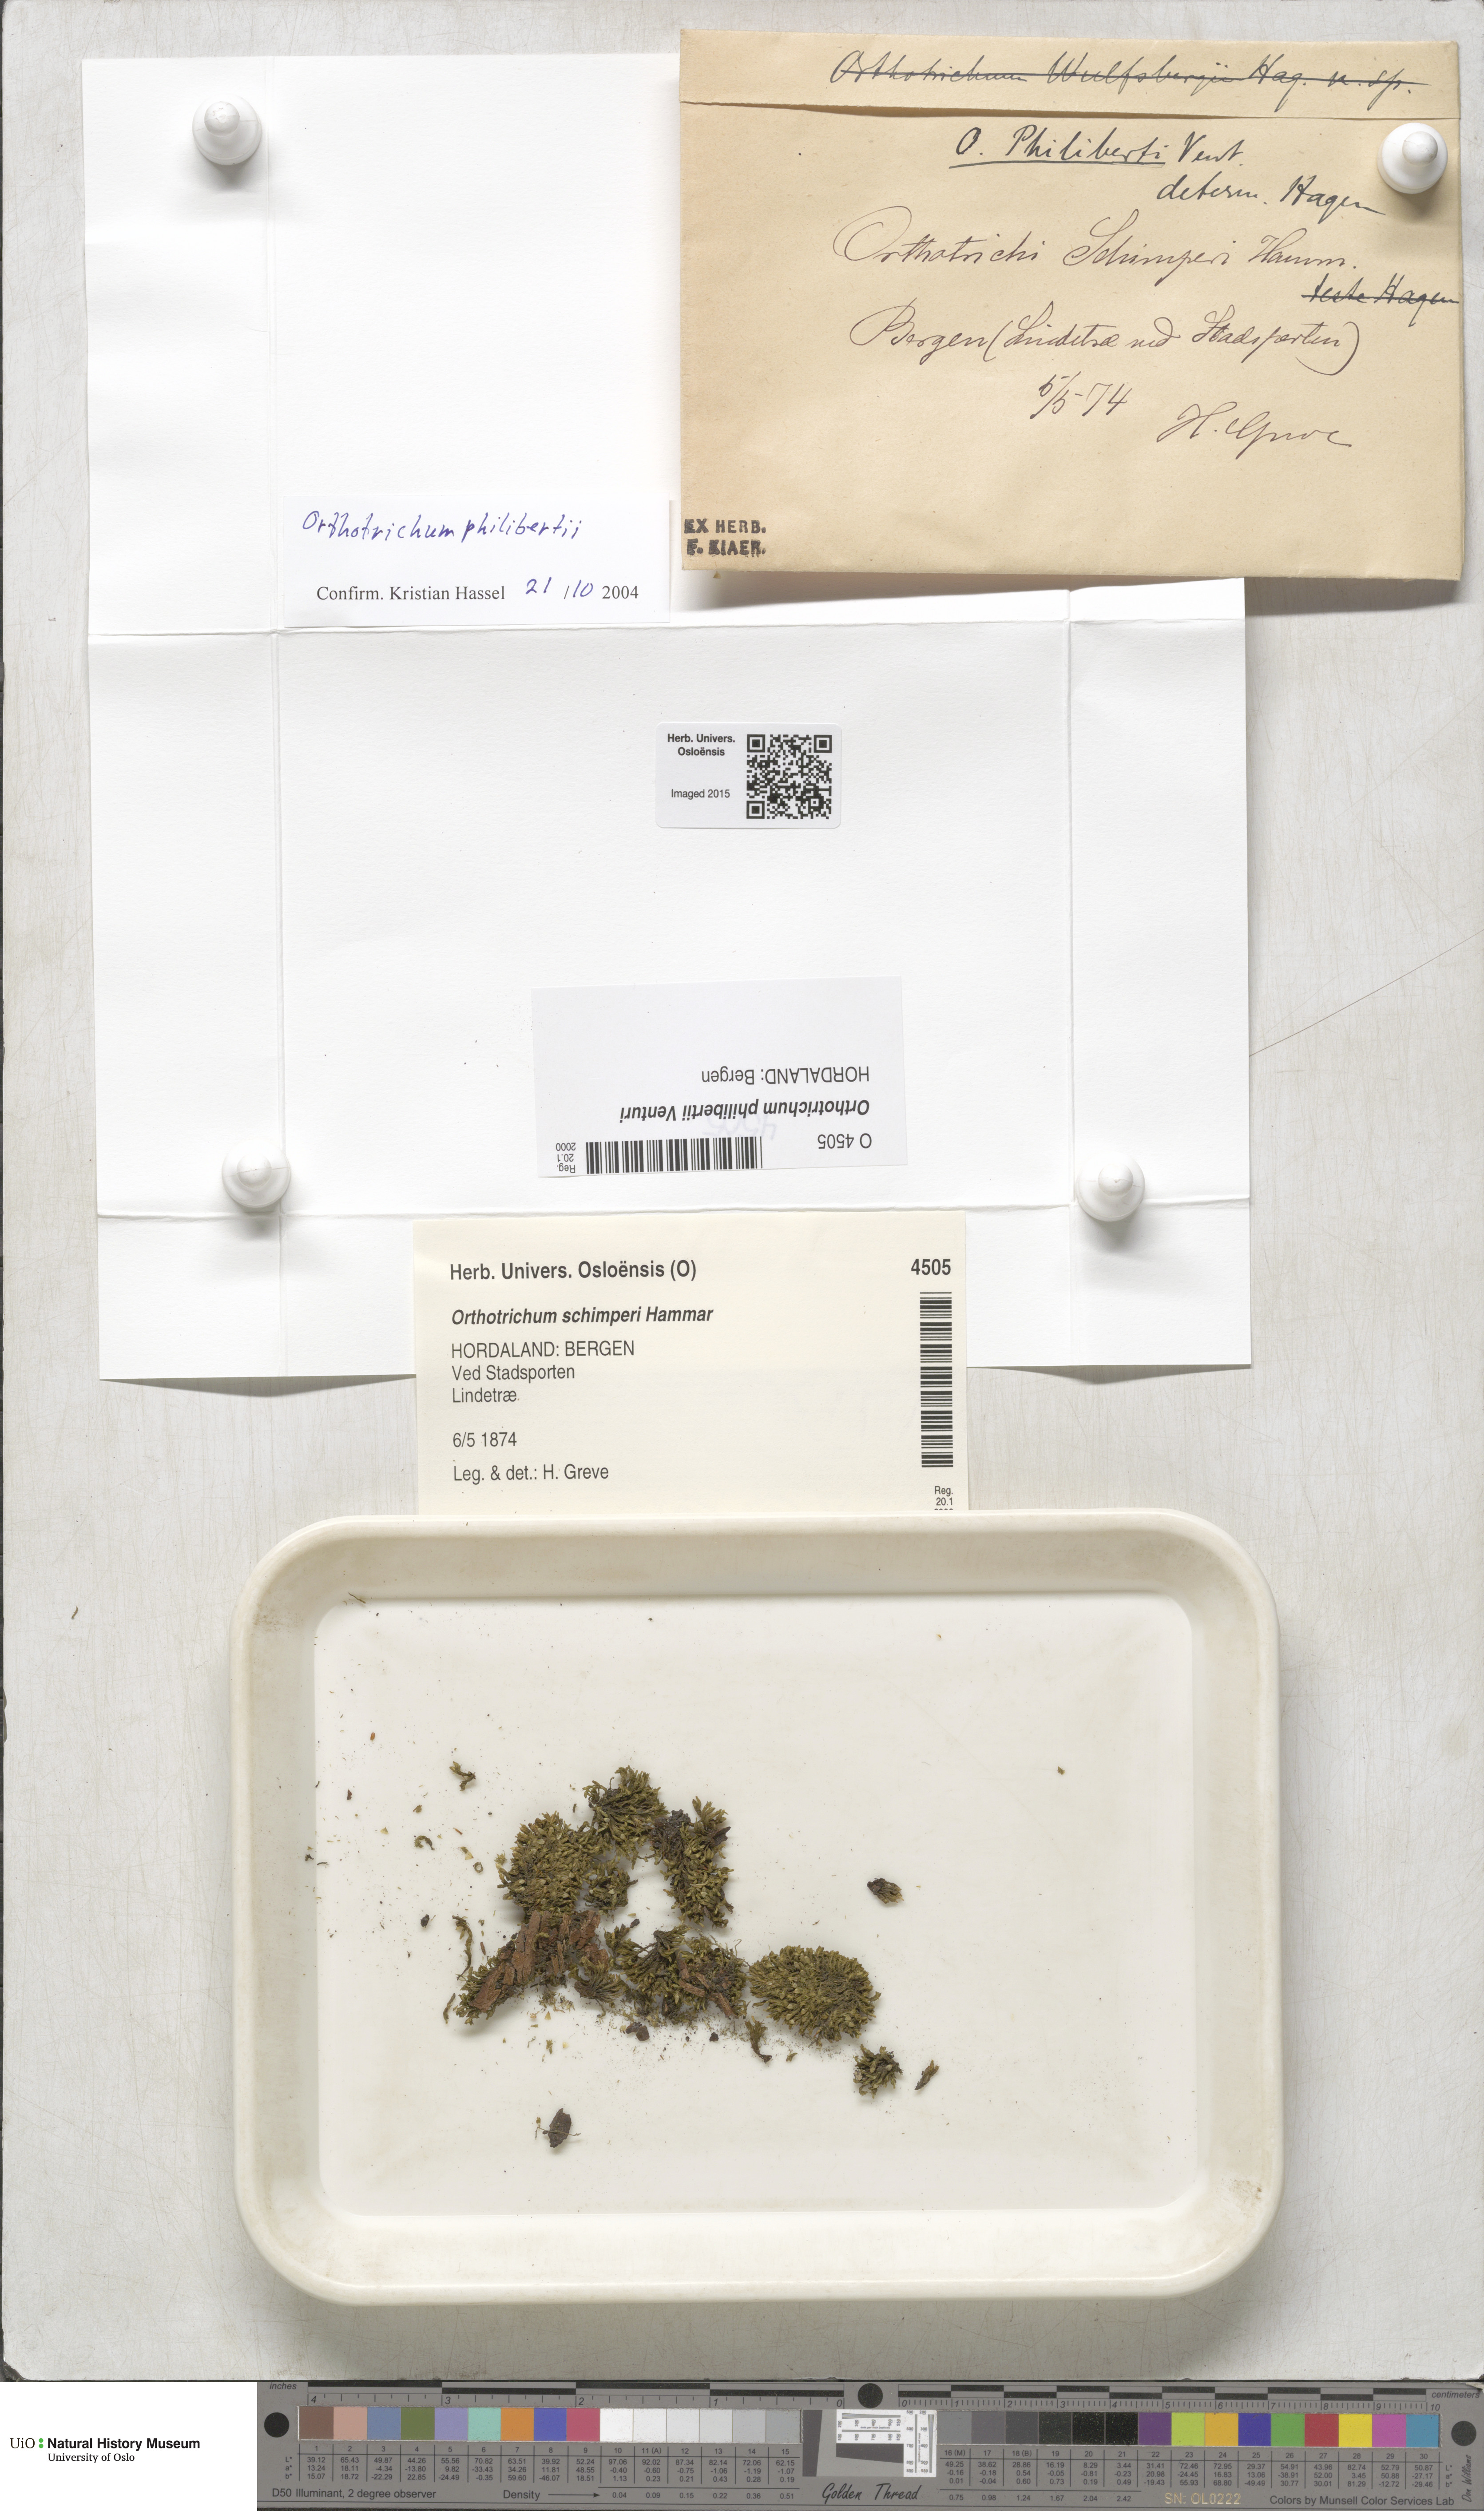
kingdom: Plantae
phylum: Bryophyta
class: Bryopsida
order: Orthotrichales
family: Orthotrichaceae
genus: Orthotrichum
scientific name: Orthotrichum philibertii
